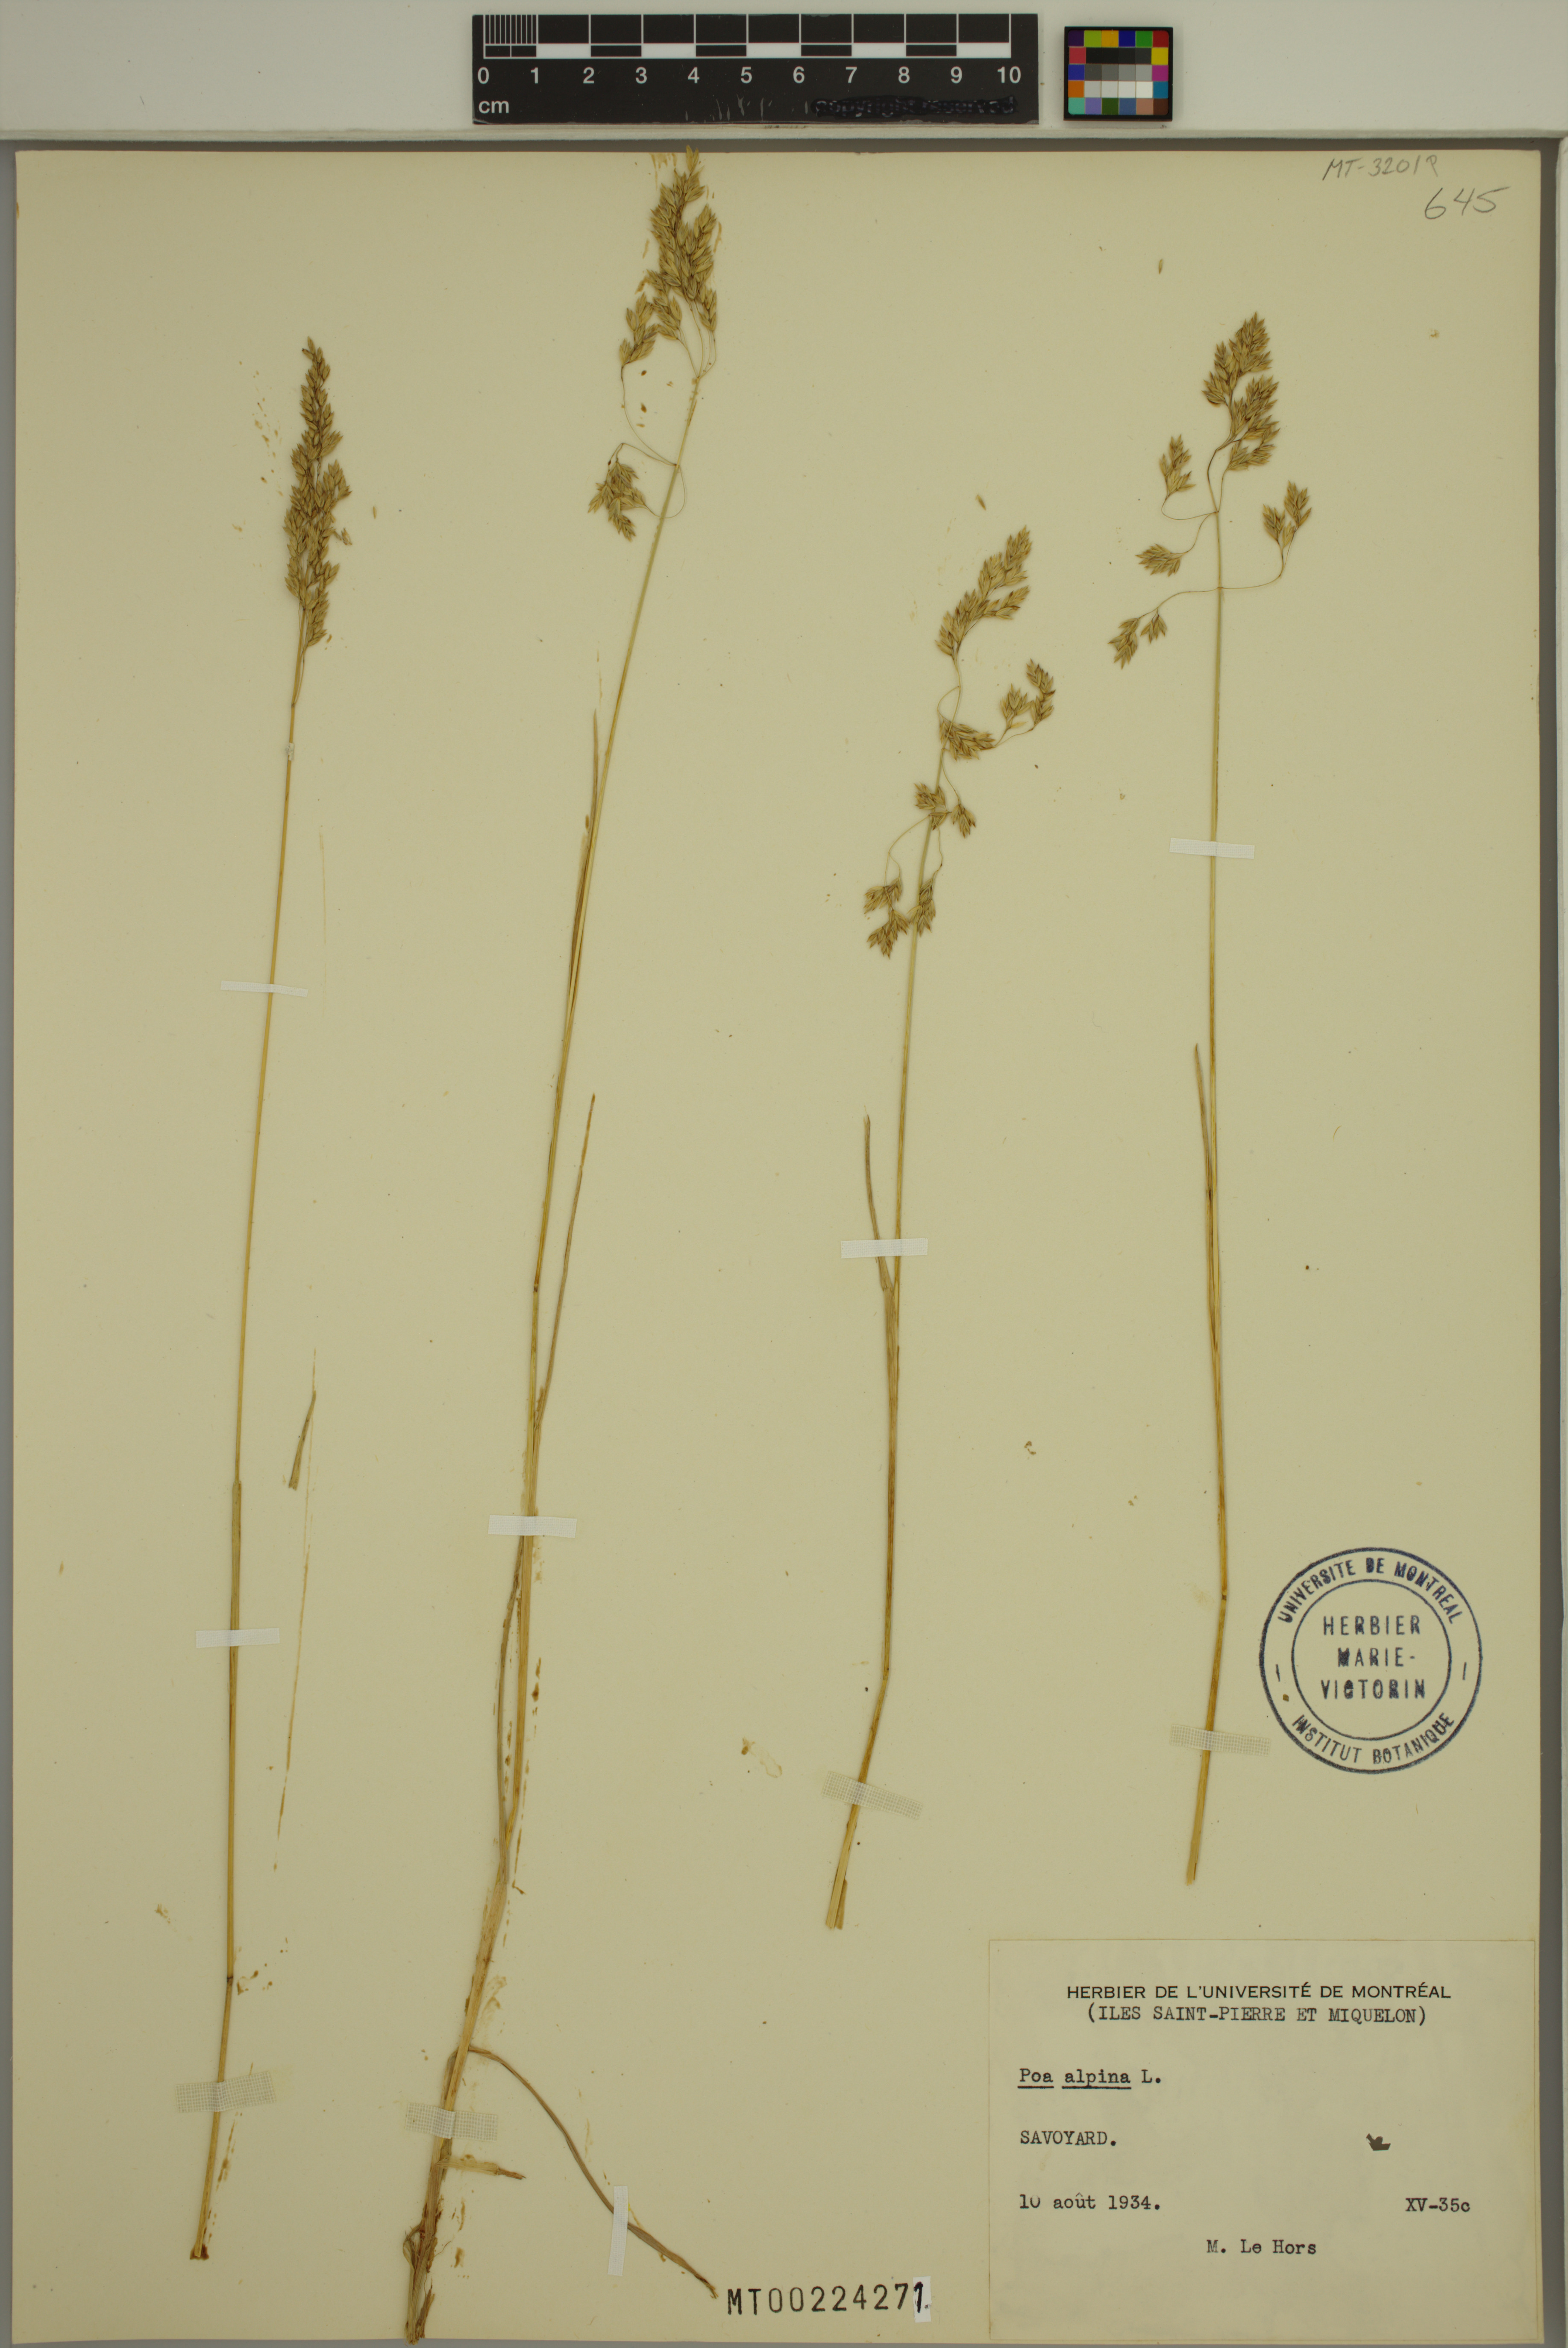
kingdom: Plantae
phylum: Tracheophyta
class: Liliopsida
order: Poales
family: Poaceae
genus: Poa
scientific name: Poa alpina
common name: Alpine bluegrass
